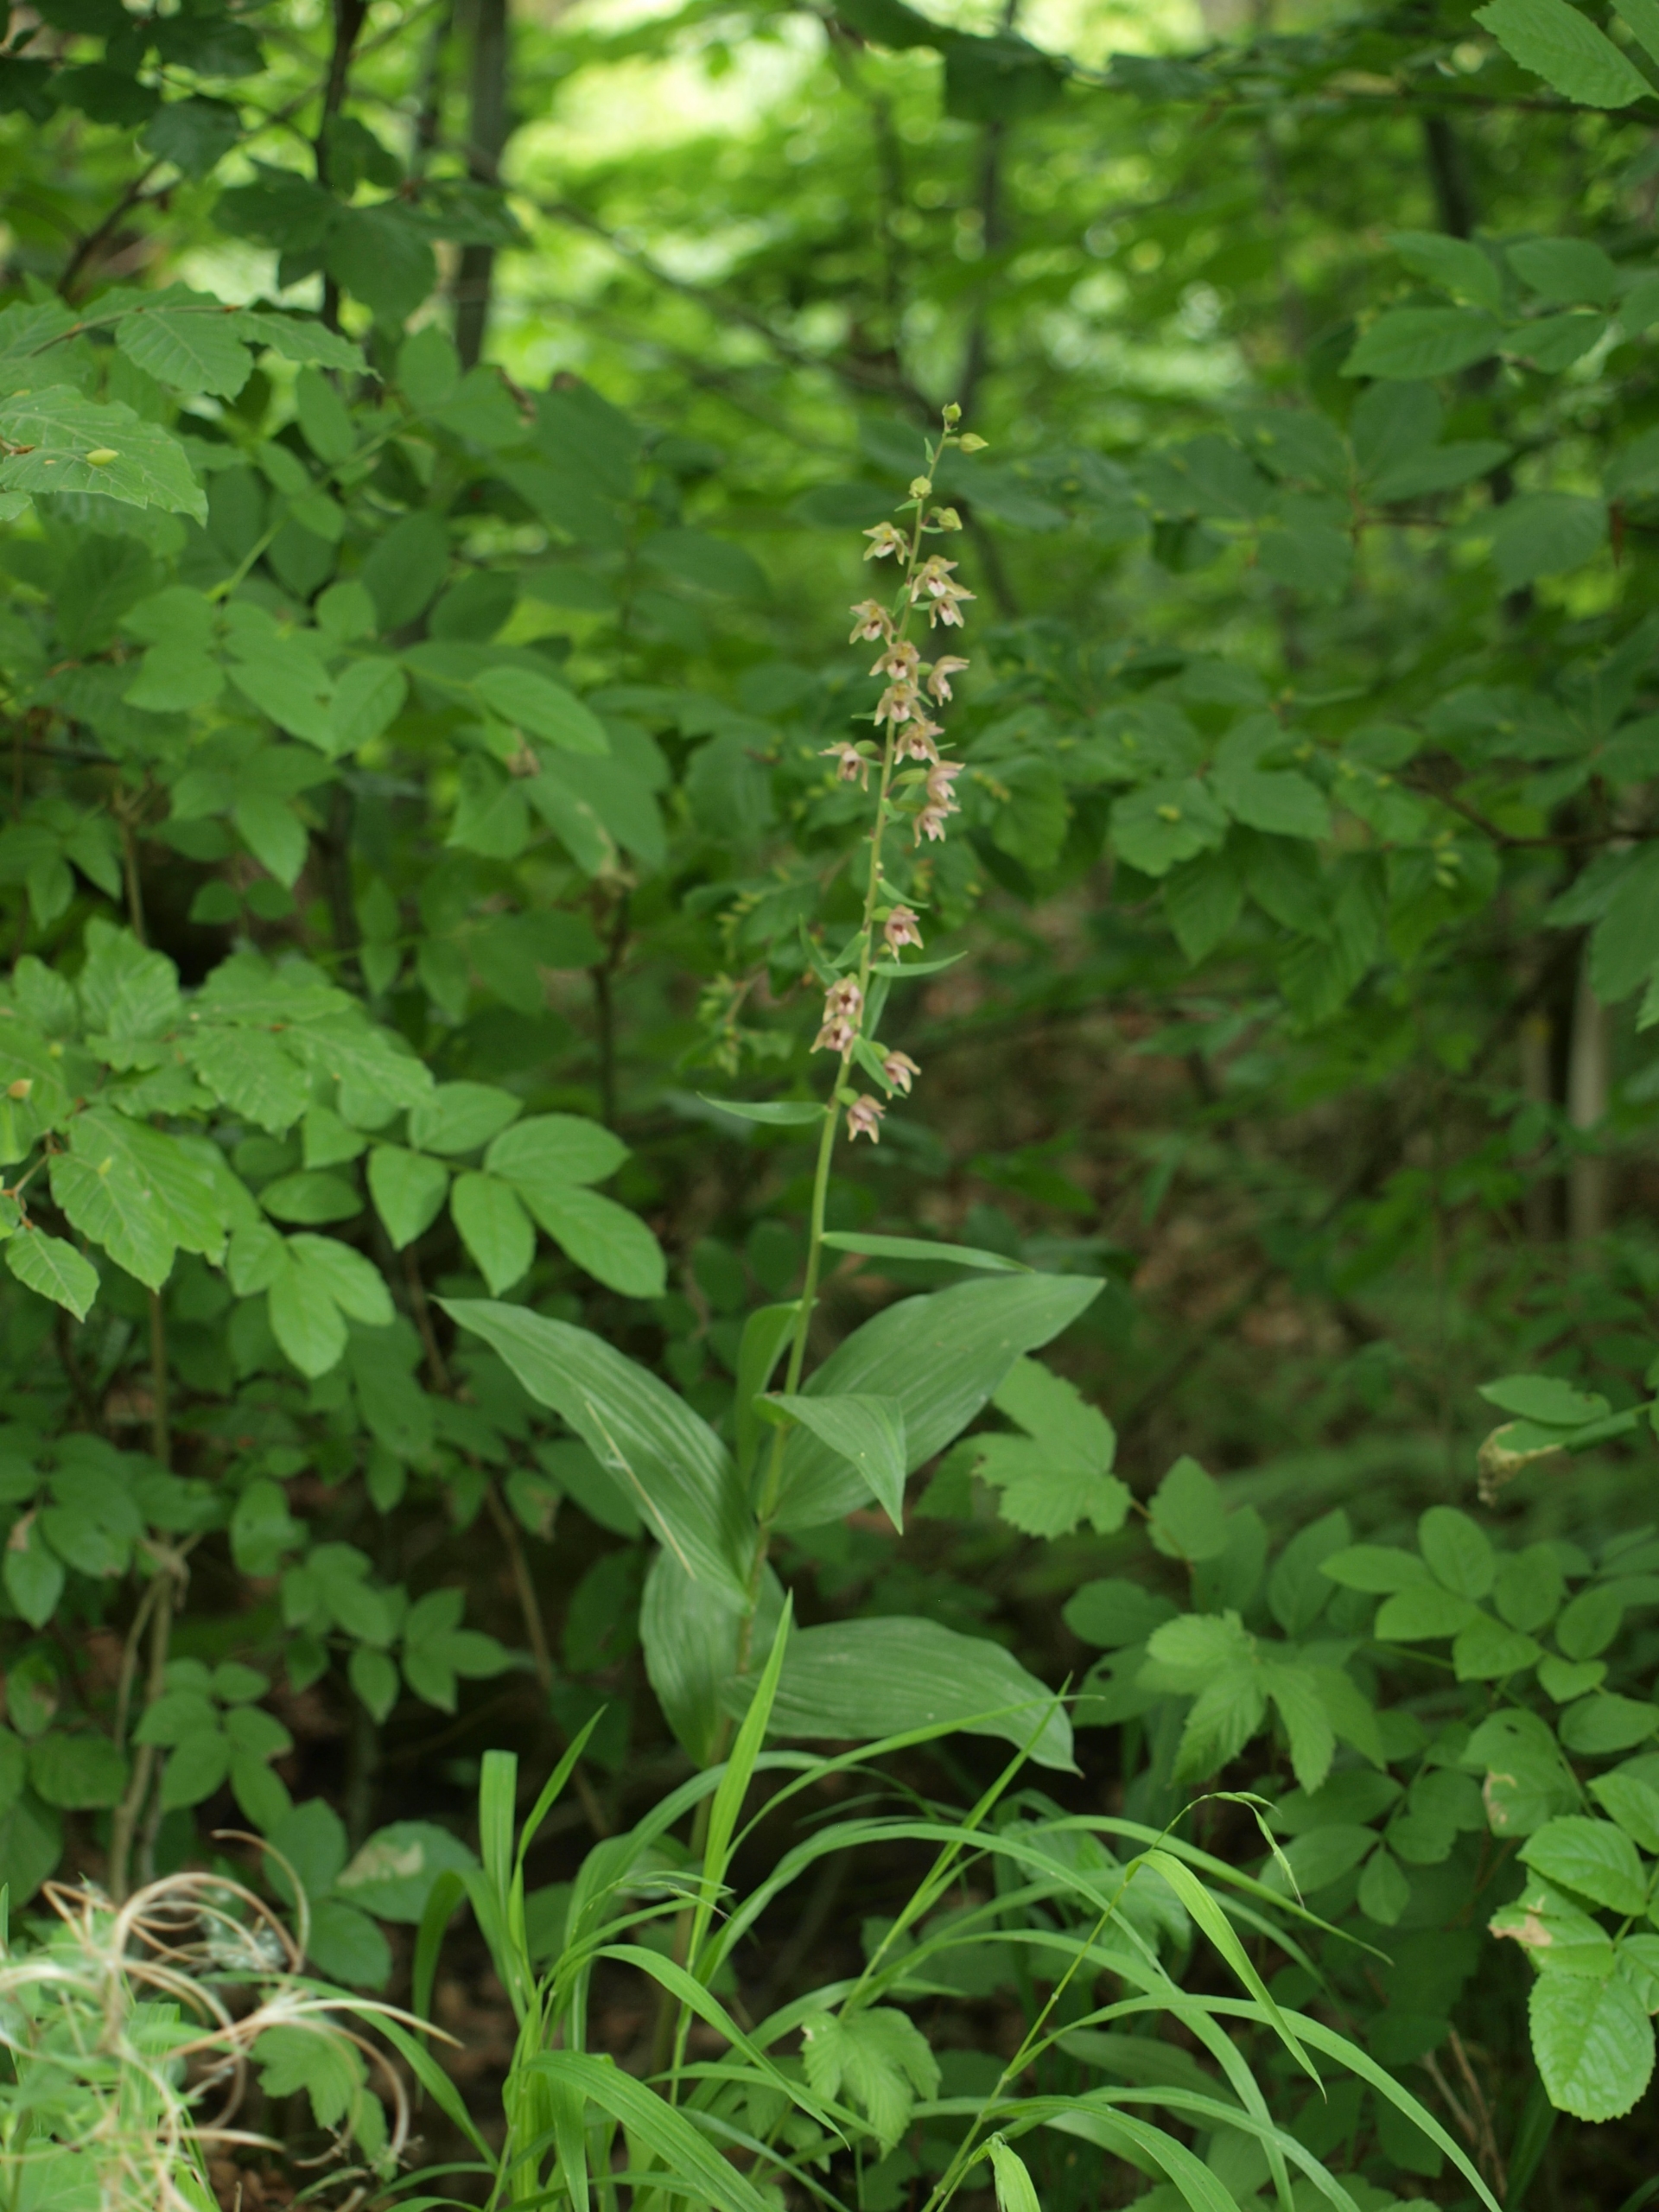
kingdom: Plantae
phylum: Tracheophyta
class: Liliopsida
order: Asparagales
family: Orchidaceae
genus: Epipactis
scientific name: Epipactis helleborine
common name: Skov-hullæbe
